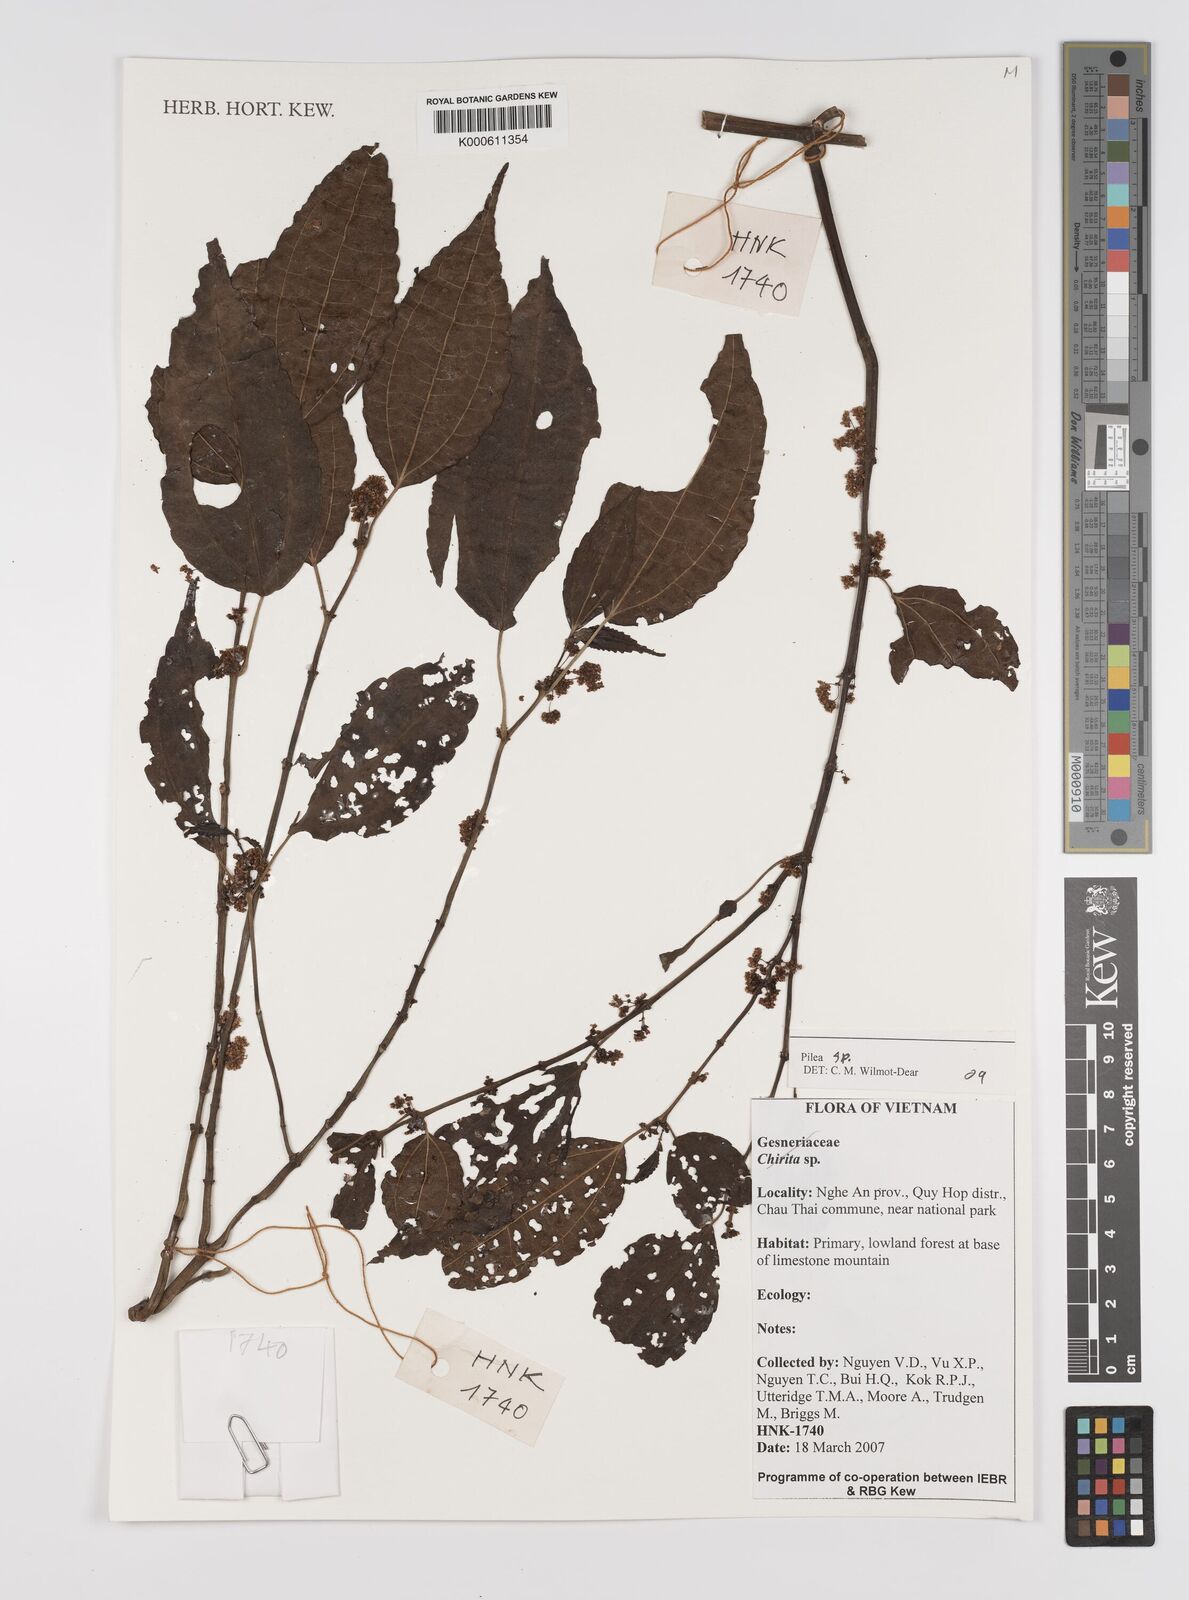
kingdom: Plantae
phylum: Tracheophyta
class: Magnoliopsida
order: Rosales
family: Urticaceae
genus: Pilea
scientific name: Pilea
